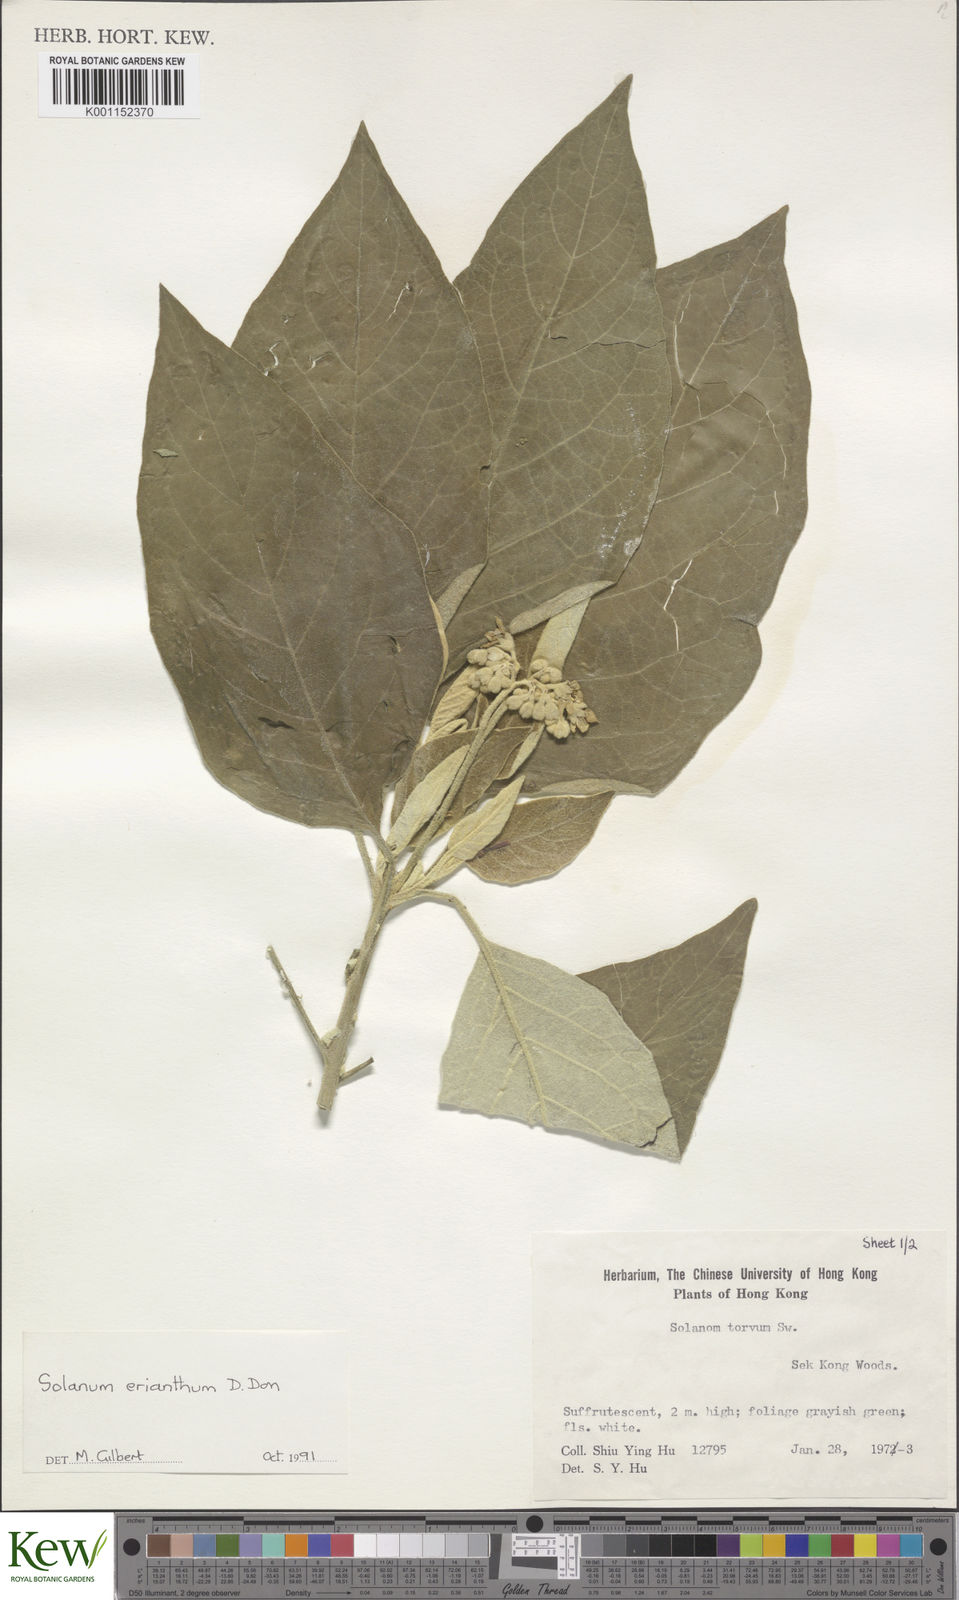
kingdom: Plantae
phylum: Tracheophyta
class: Magnoliopsida
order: Solanales
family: Solanaceae
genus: Solanum
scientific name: Solanum erianthum
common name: Tobacco-tree
